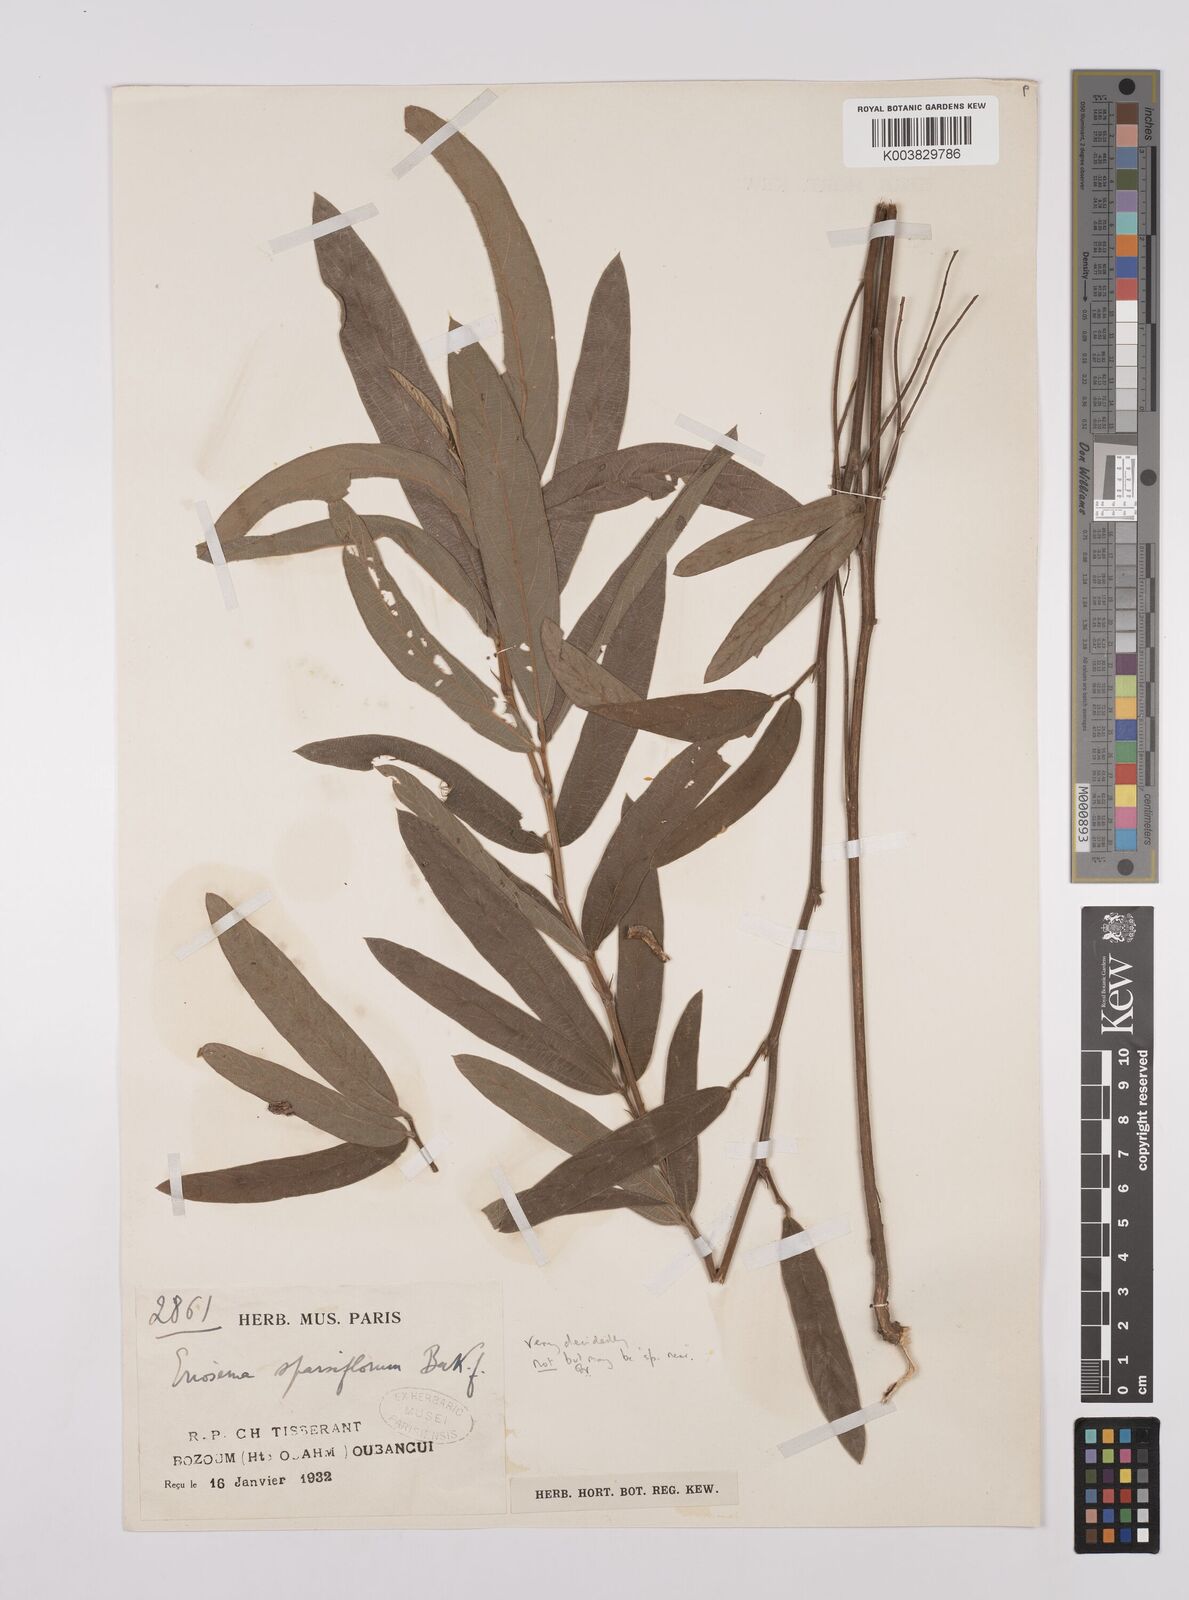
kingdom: Plantae
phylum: Tracheophyta
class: Magnoliopsida
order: Fabales
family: Fabaceae
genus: Eriosema
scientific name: Eriosema sparsiflorum
